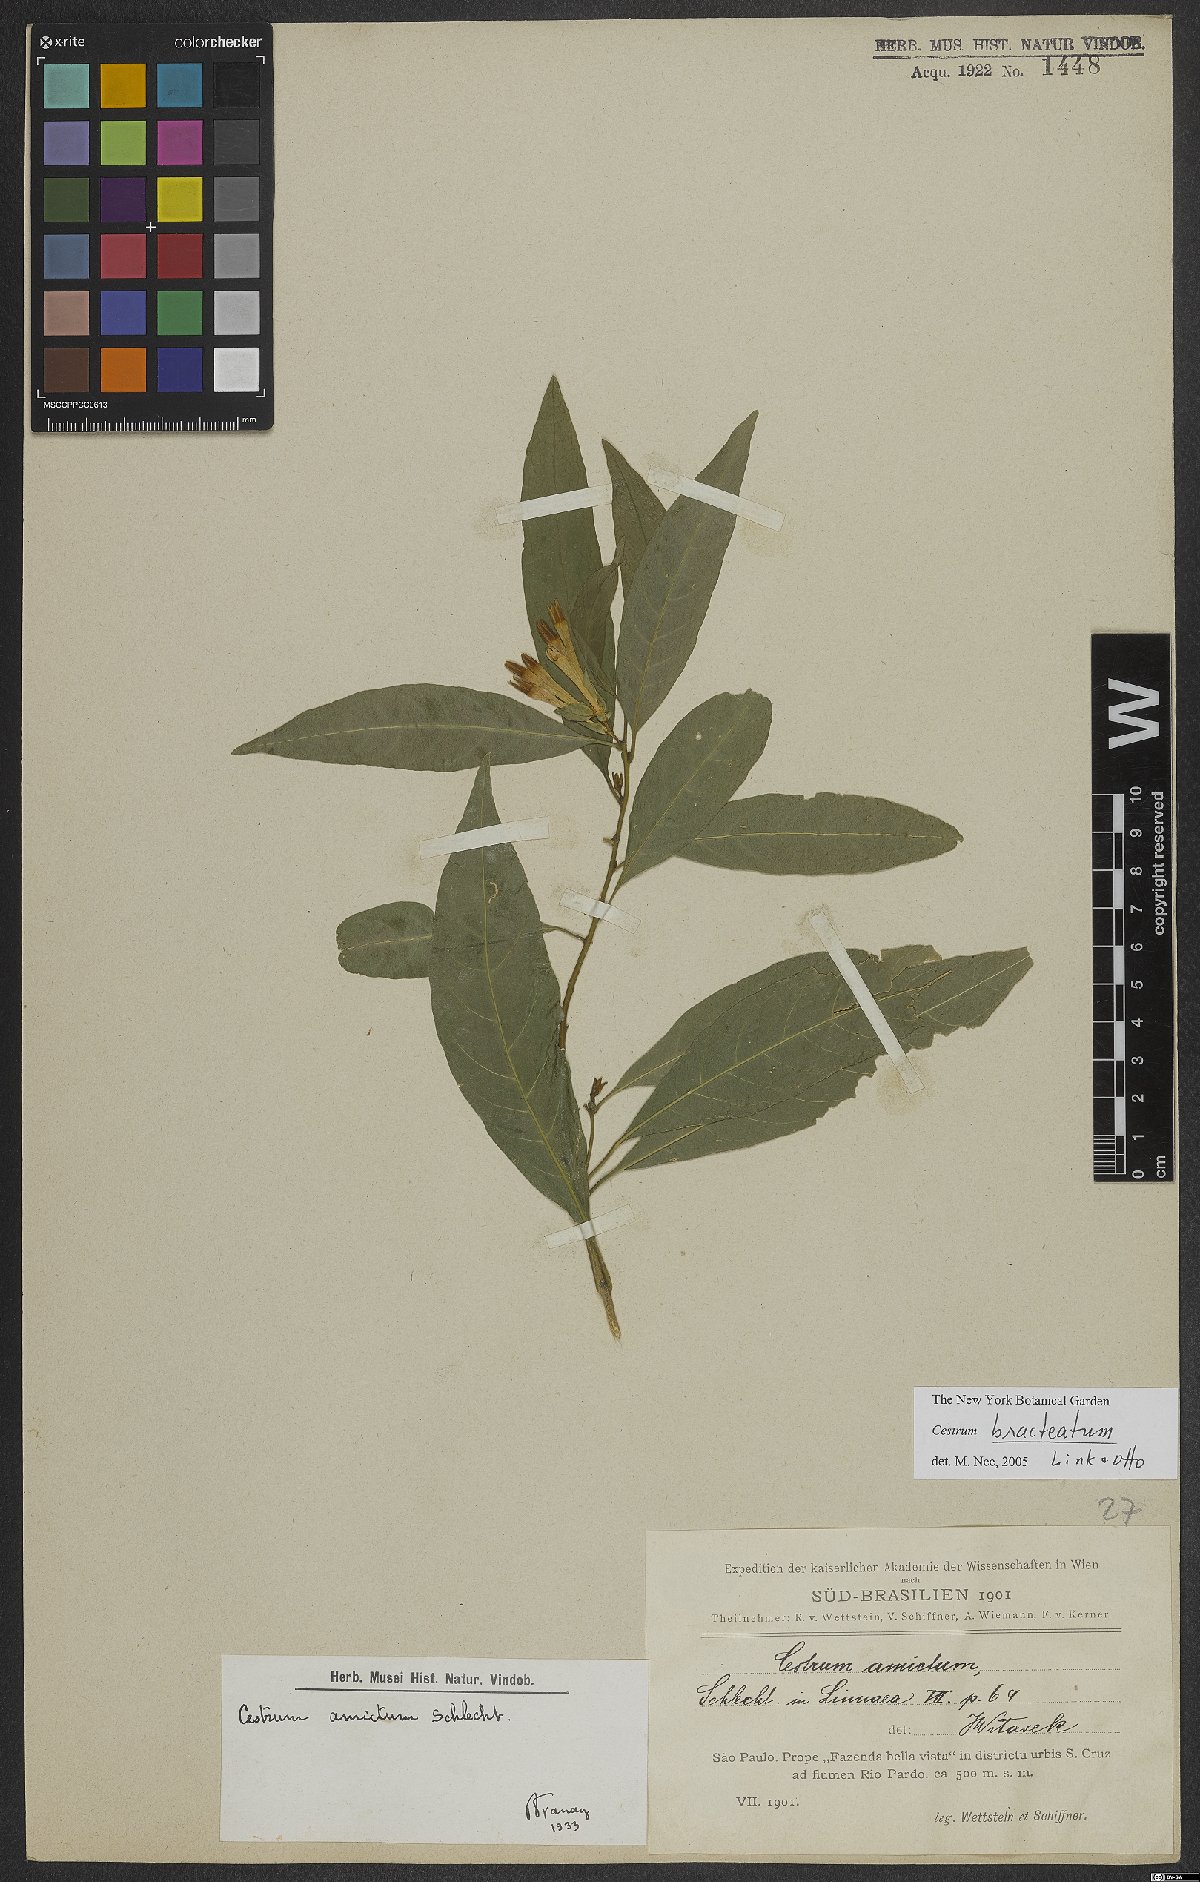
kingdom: Plantae
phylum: Tracheophyta
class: Magnoliopsida
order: Solanales
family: Solanaceae
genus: Cestrum
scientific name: Cestrum bracteatum
